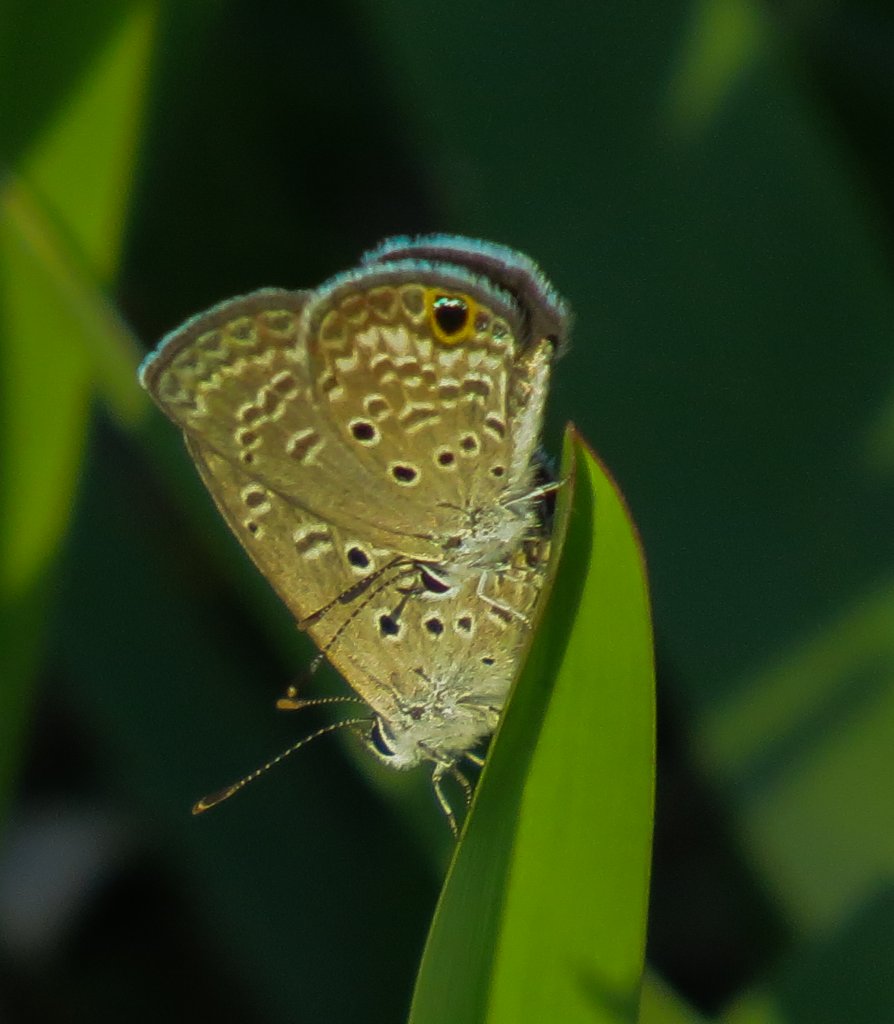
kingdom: Animalia
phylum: Arthropoda
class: Insecta
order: Lepidoptera
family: Lycaenidae
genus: Hemiargus
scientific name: Hemiargus ceraunus
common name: Ceraunus Blue
